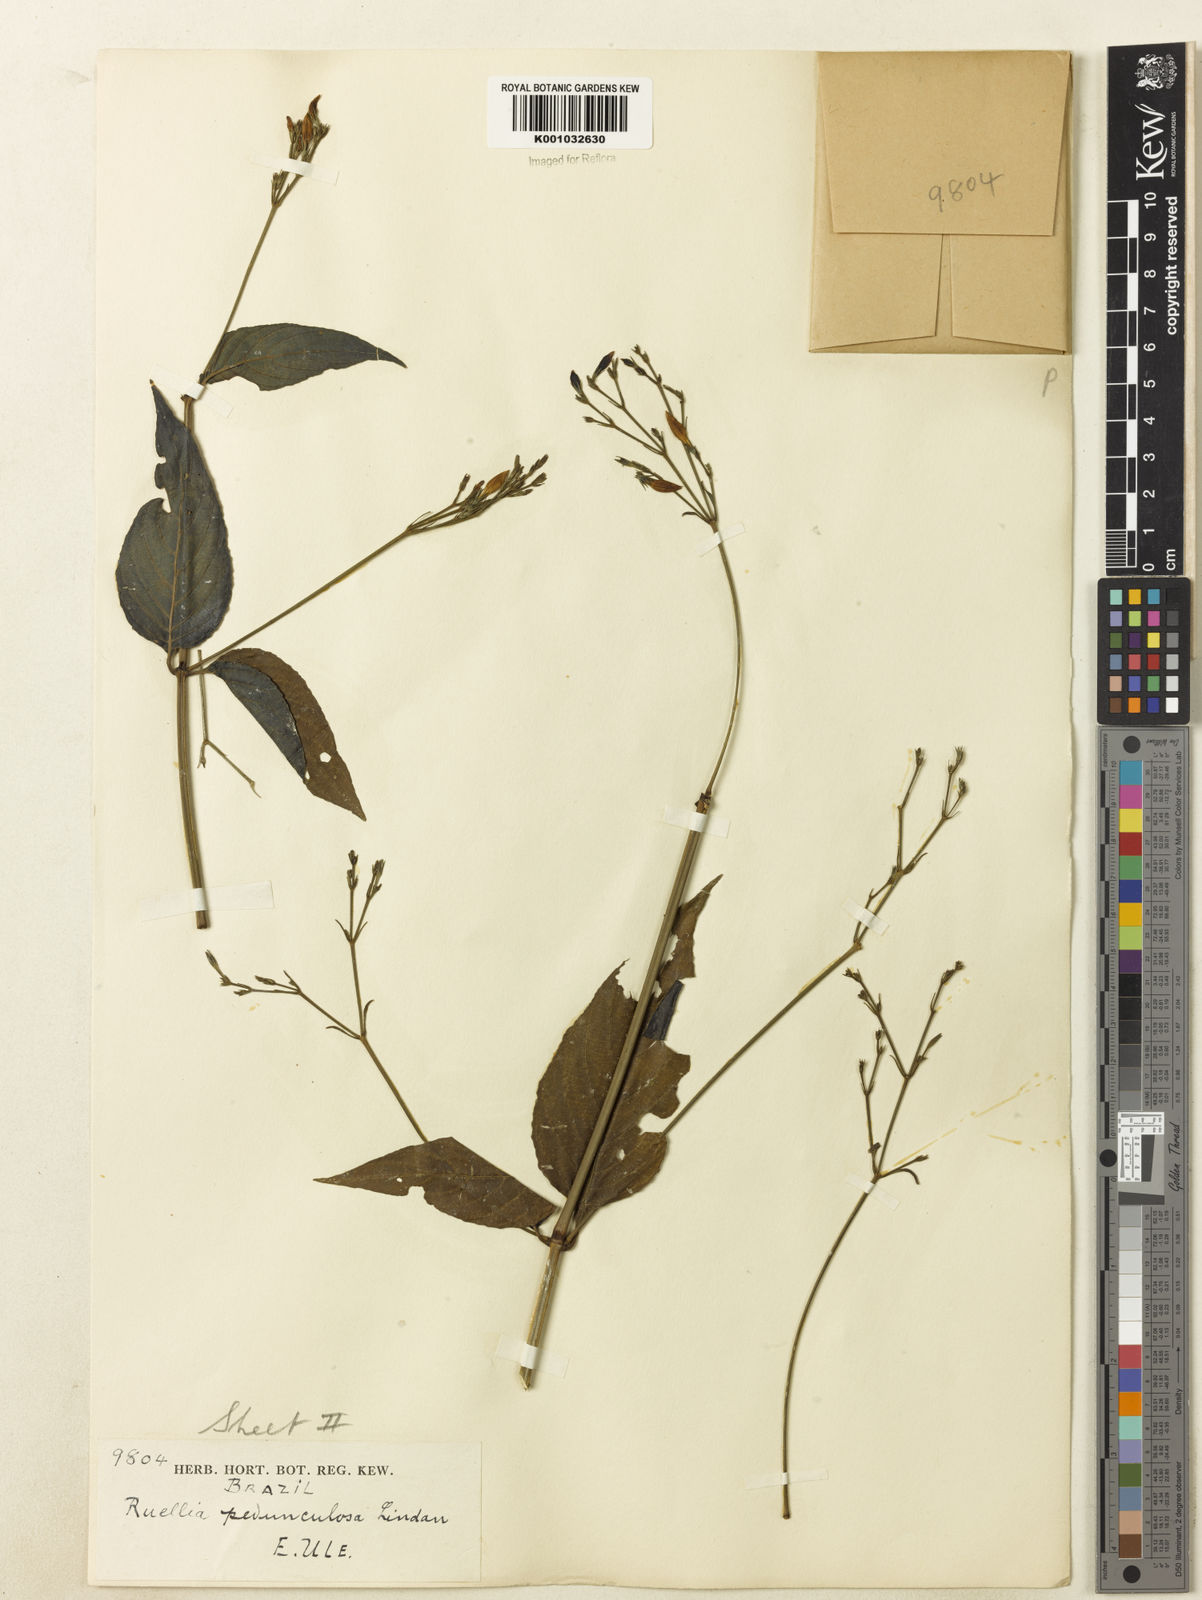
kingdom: Plantae
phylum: Tracheophyta
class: Magnoliopsida
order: Lamiales
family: Acanthaceae
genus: Ruellia
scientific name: Ruellia pedunculata
